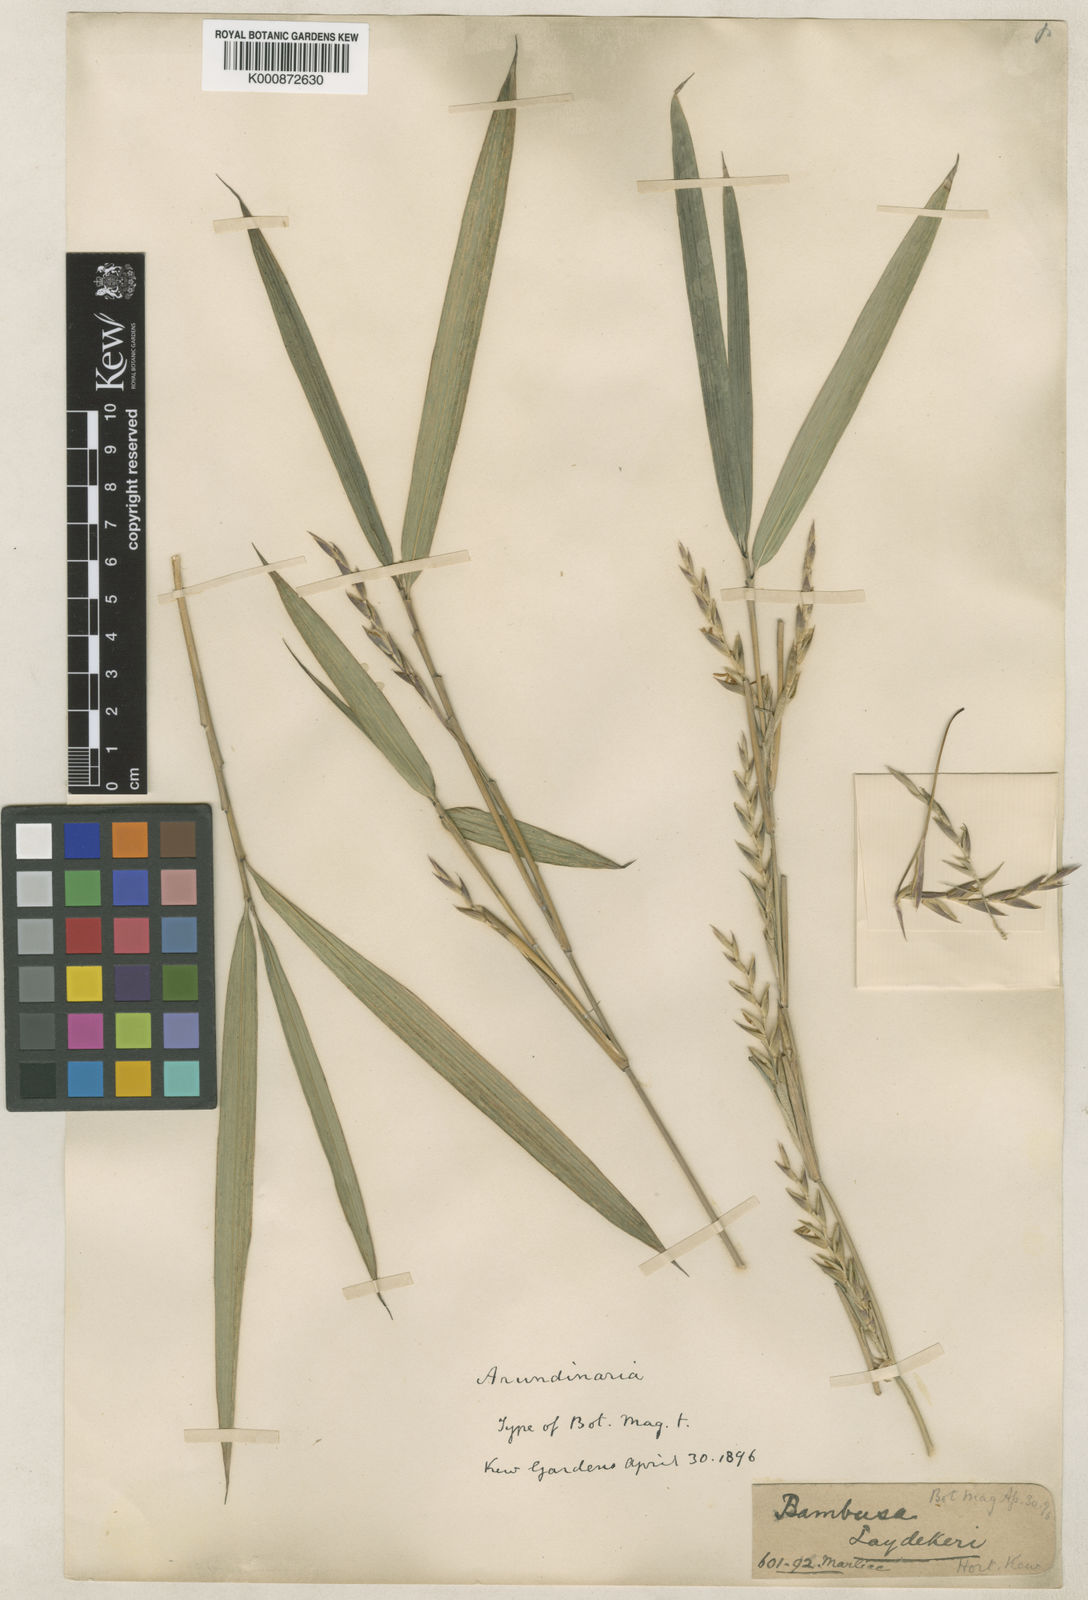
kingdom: Plantae
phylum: Tracheophyta
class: Liliopsida
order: Poales
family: Poaceae
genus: Pleioblastus
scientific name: Pleioblastus argenteostriatus
